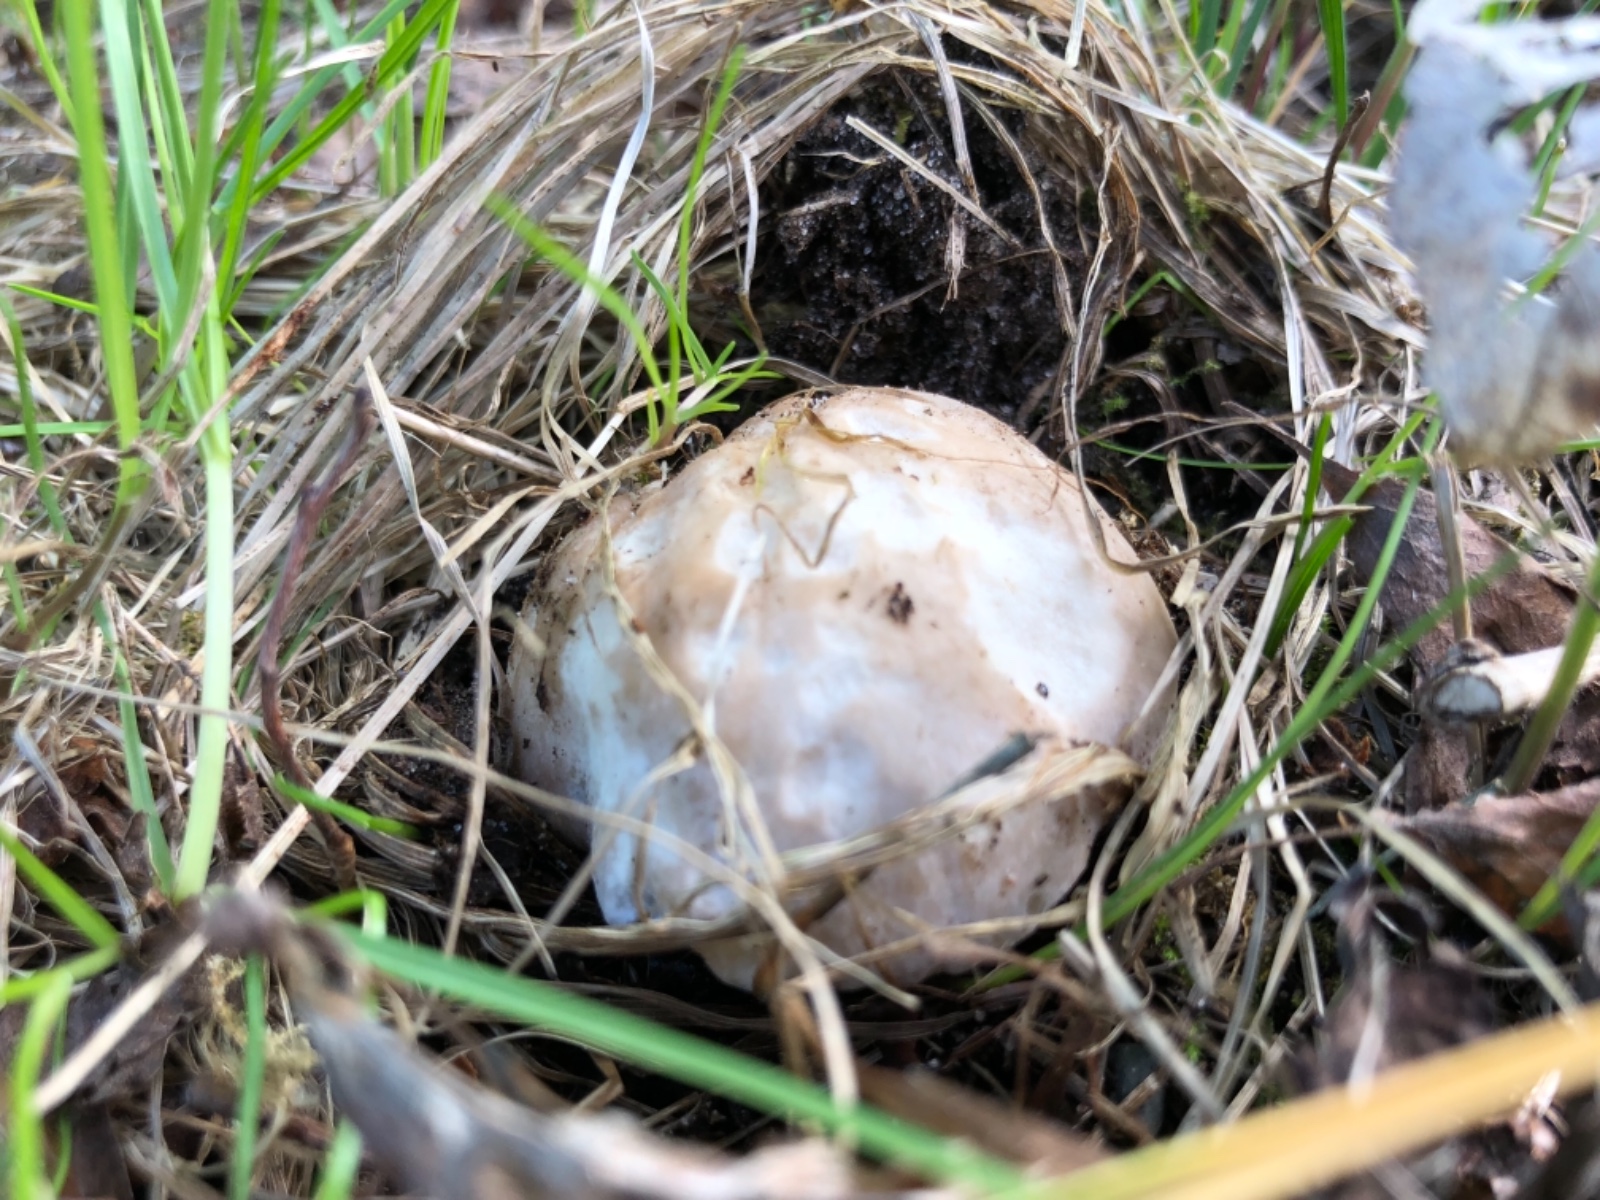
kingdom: Fungi
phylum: Basidiomycota
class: Agaricomycetes
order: Agaricales
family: Lyophyllaceae
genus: Calocybe
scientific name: Calocybe gambosa
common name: vårmusseron
